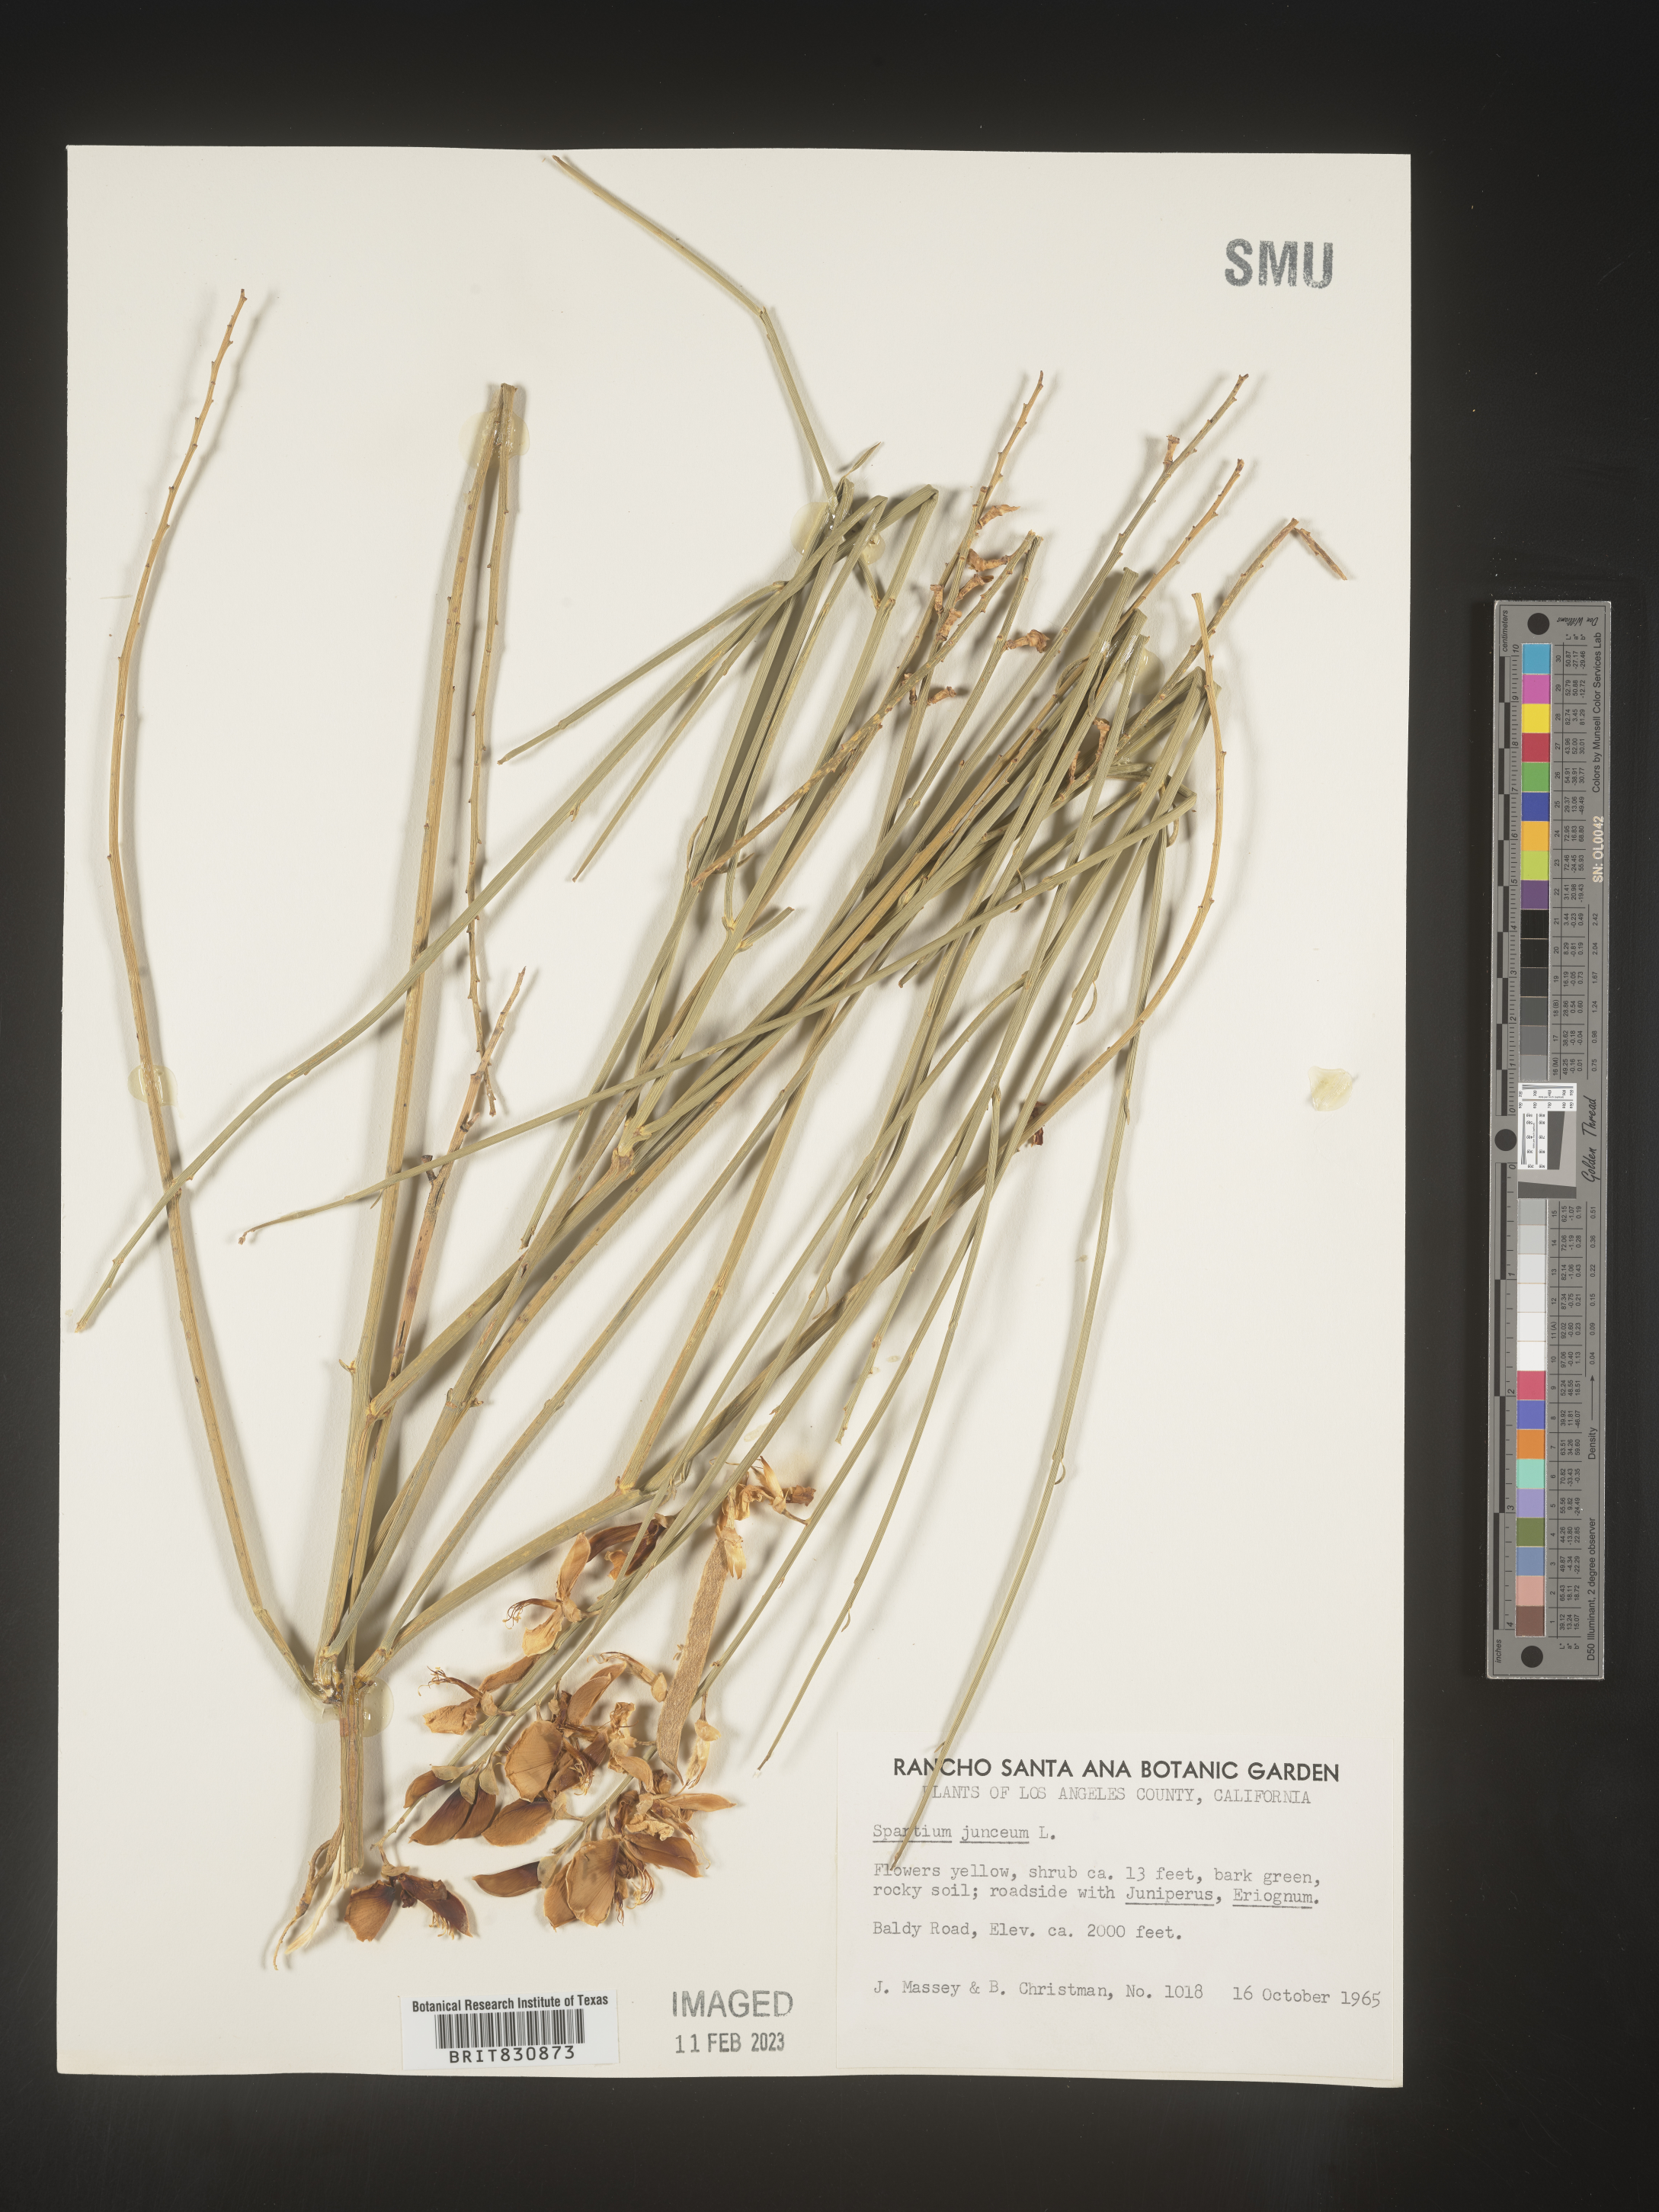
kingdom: Plantae
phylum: Tracheophyta
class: Magnoliopsida
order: Fabales
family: Fabaceae
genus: Spartium
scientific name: Spartium
